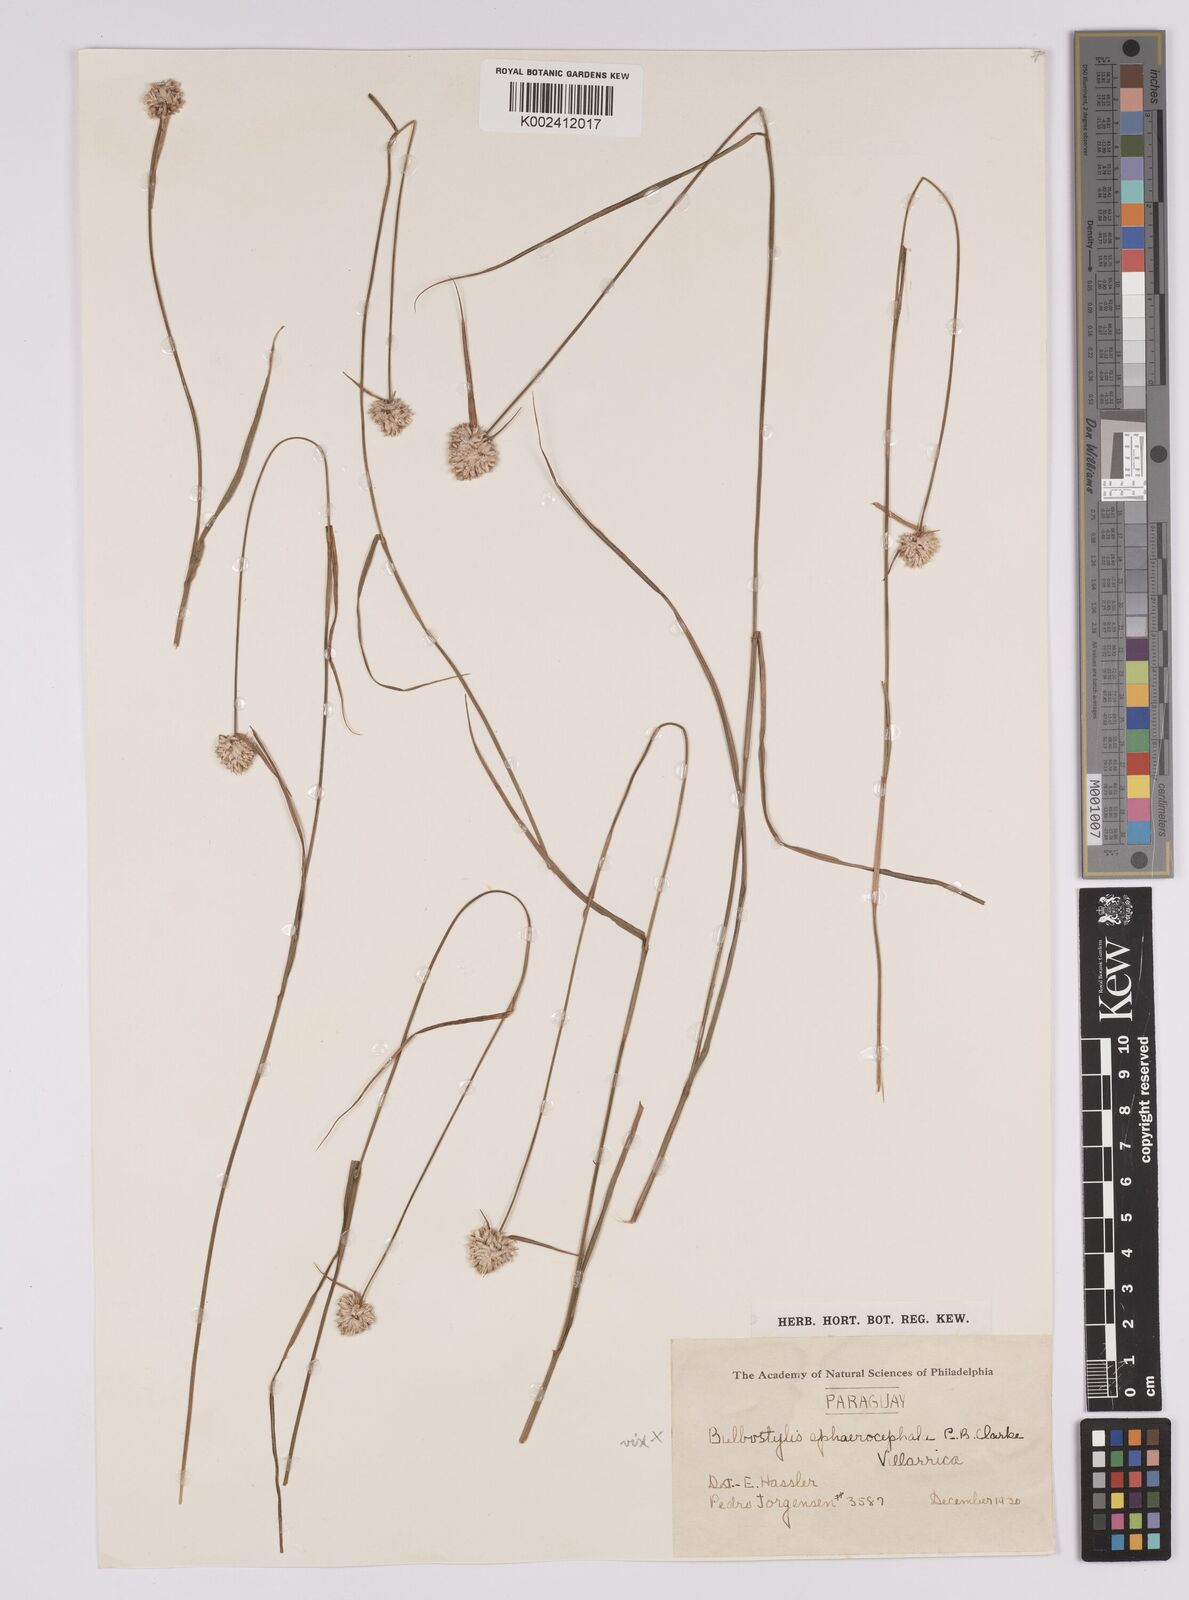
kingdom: Plantae
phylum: Tracheophyta
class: Liliopsida
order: Poales
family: Cyperaceae
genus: Rhynchospora
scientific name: Rhynchospora setigera
